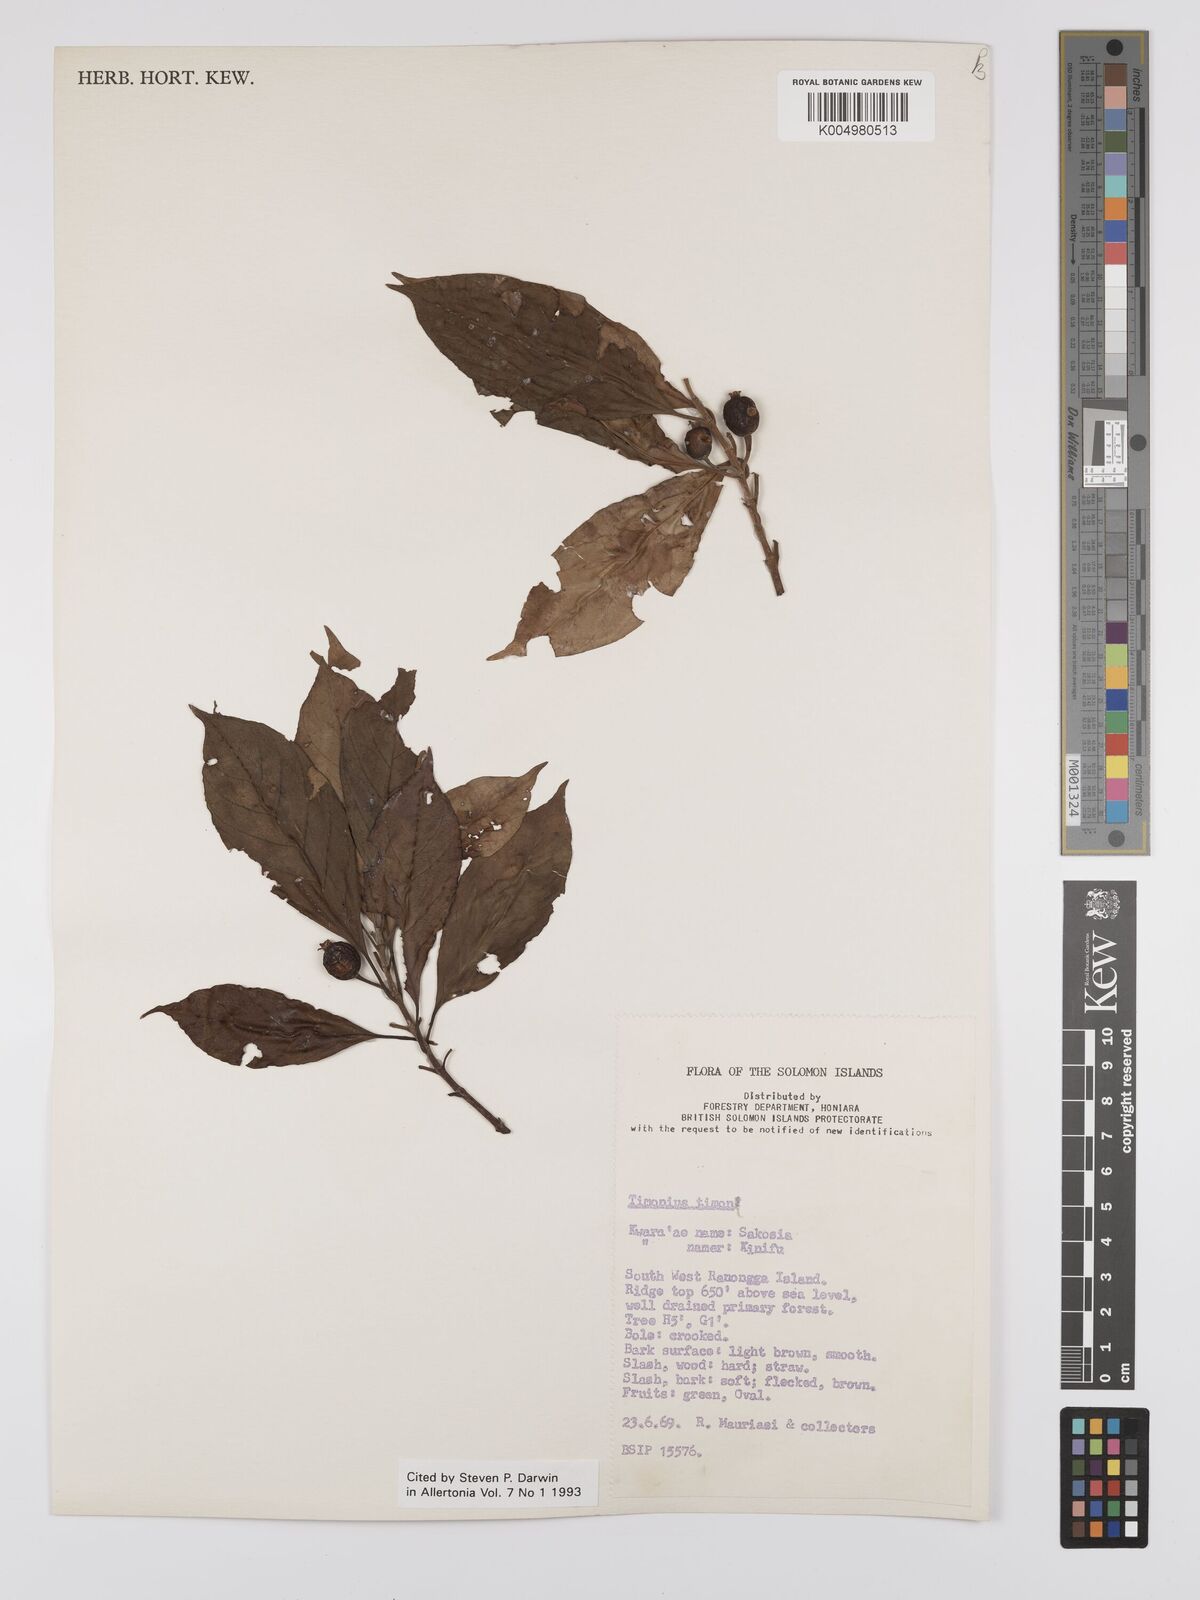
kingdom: Plantae
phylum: Tracheophyta
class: Magnoliopsida
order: Gentianales
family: Rubiaceae
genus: Timonius
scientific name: Timonius timon
